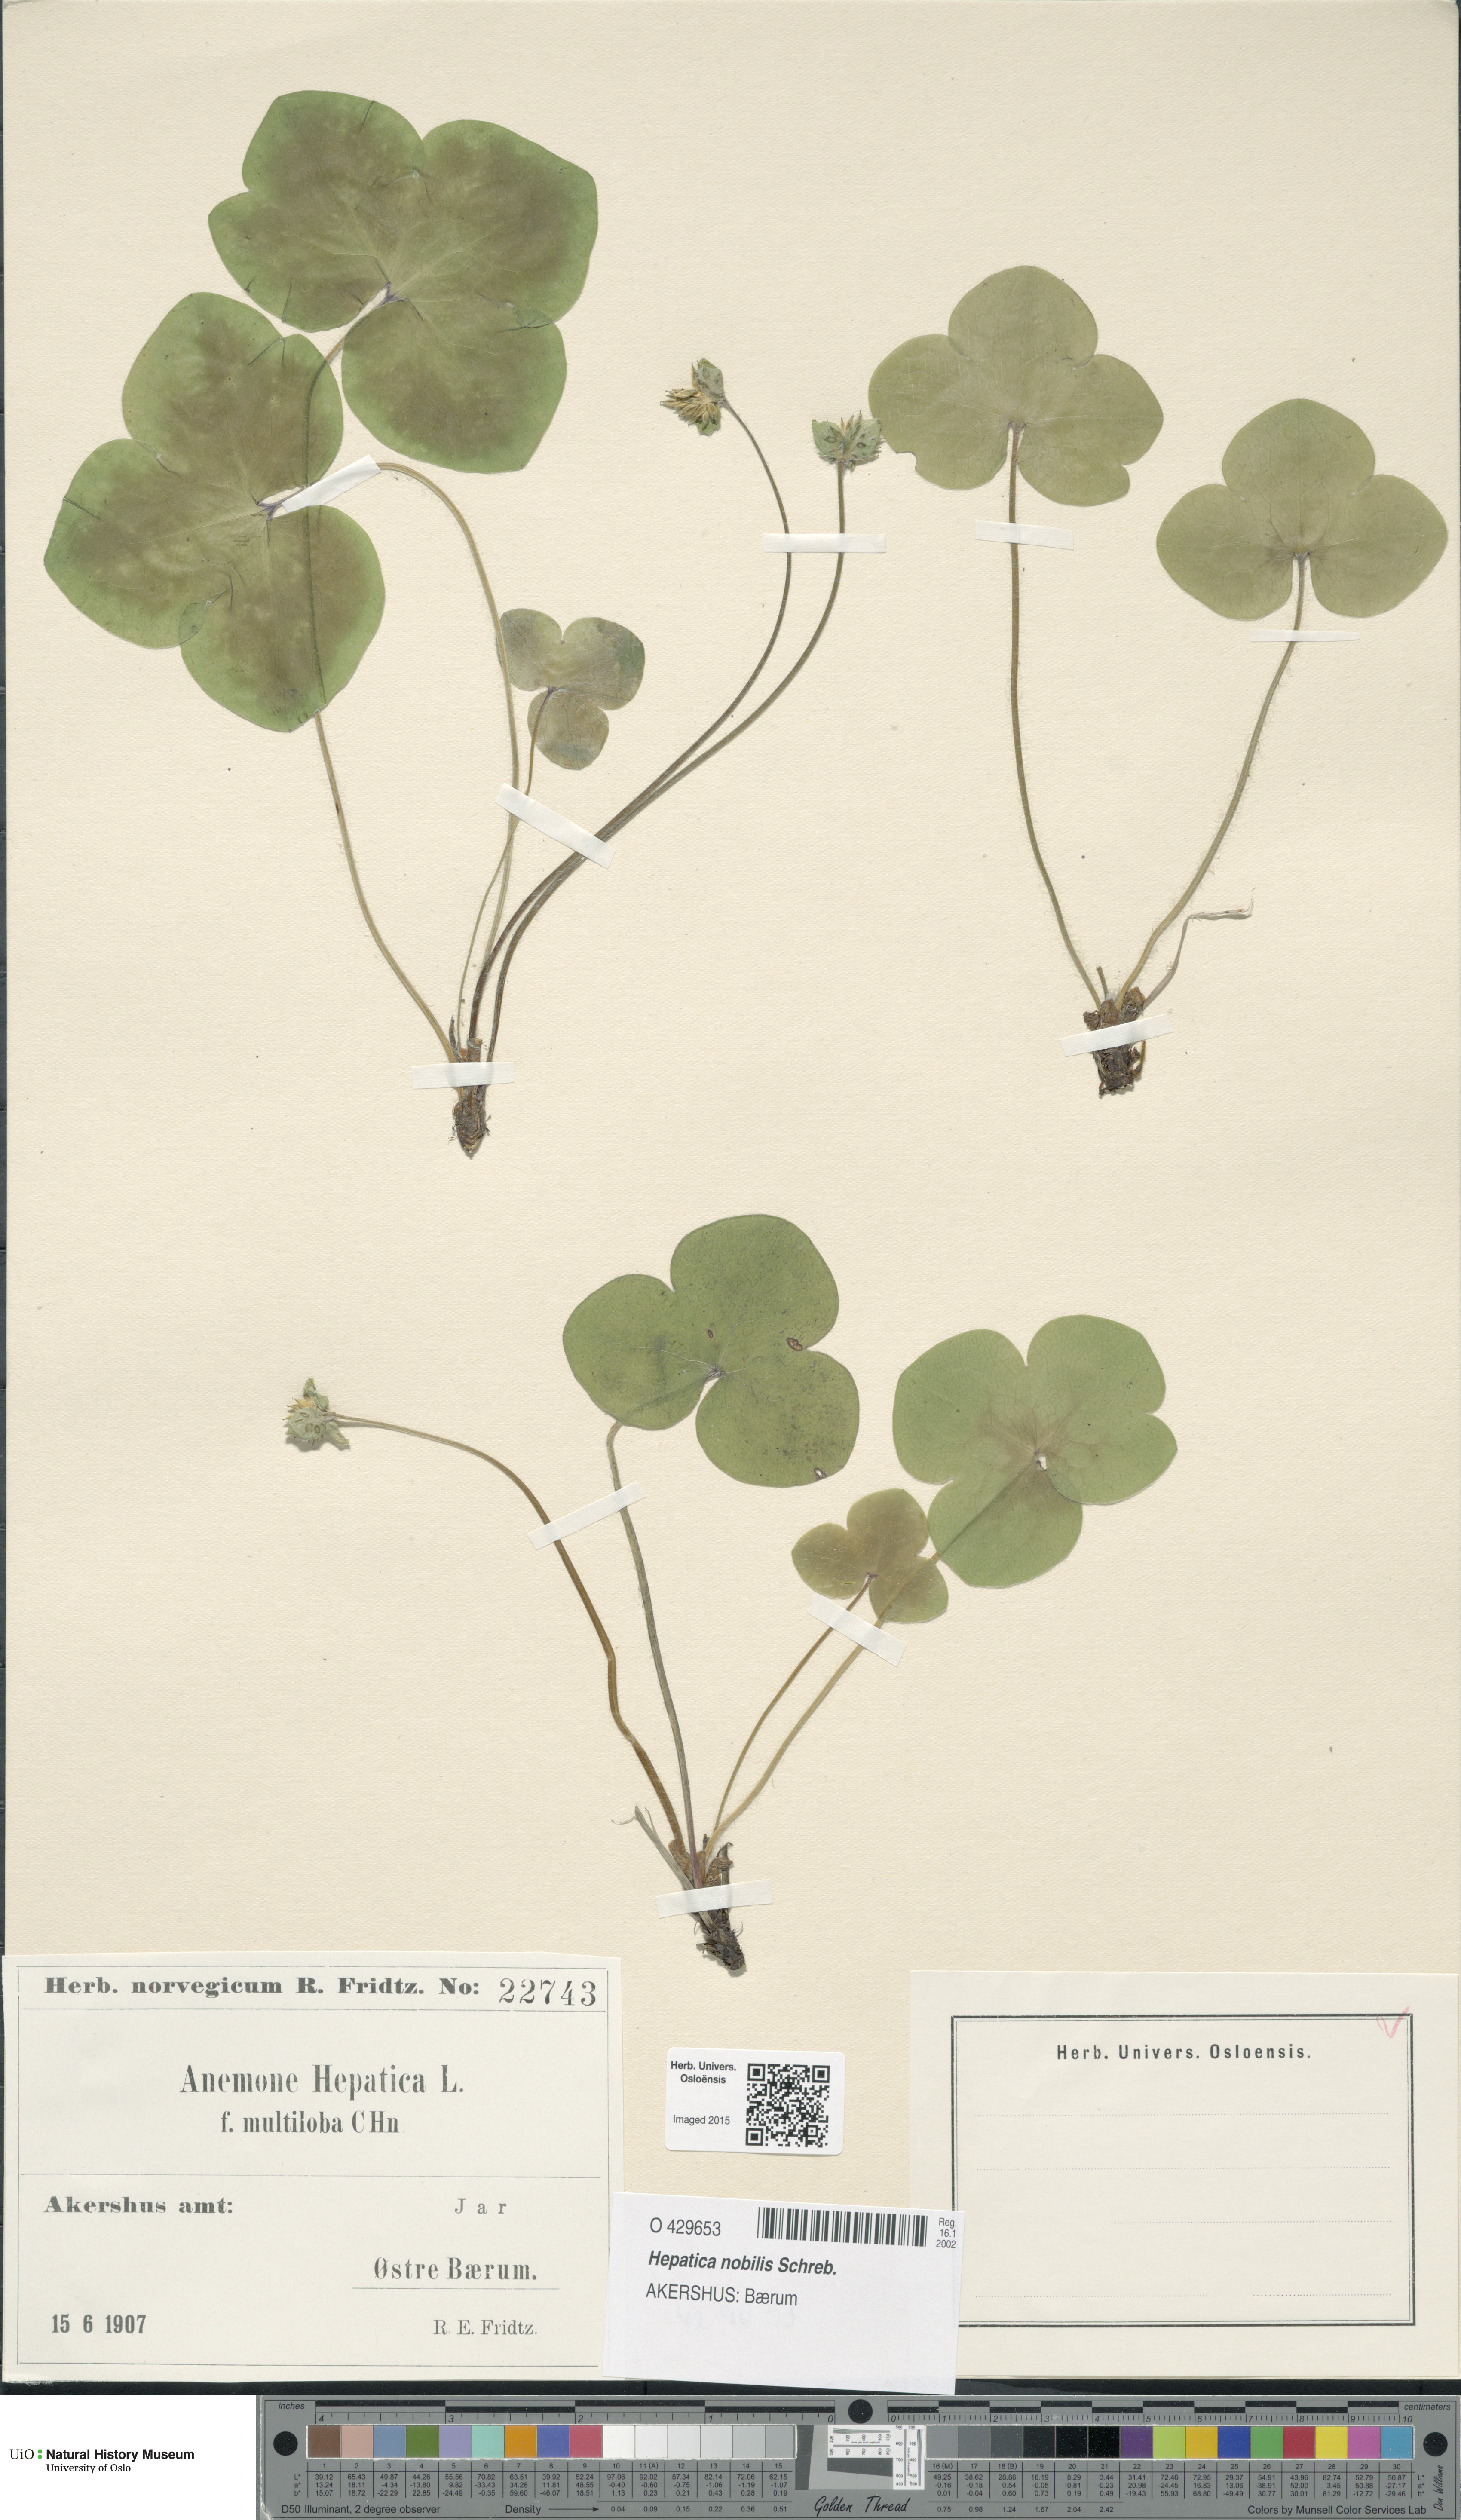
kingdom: Plantae
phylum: Tracheophyta
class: Magnoliopsida
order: Ranunculales
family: Ranunculaceae
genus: Hepatica
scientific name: Hepatica nobilis
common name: Liverleaf
